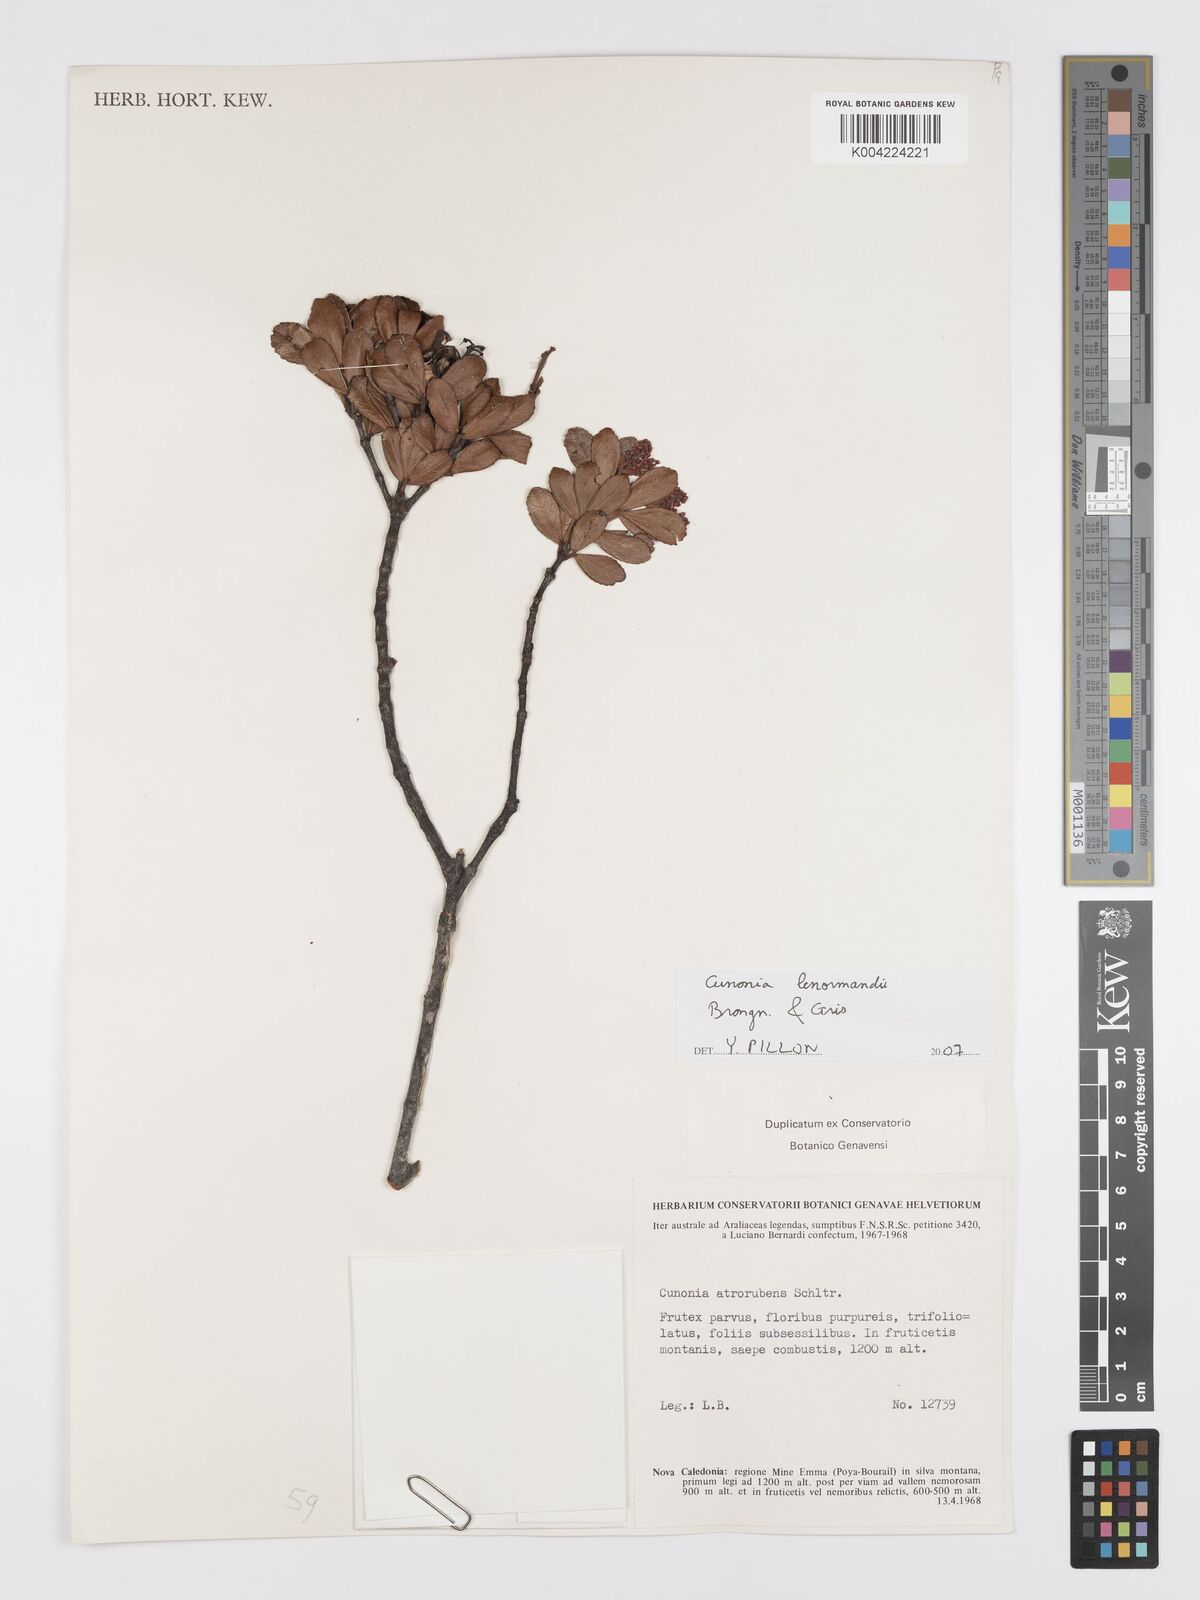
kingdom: Plantae
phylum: Tracheophyta
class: Magnoliopsida
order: Oxalidales
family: Cunoniaceae
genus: Cunonia
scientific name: Cunonia lenormandii
